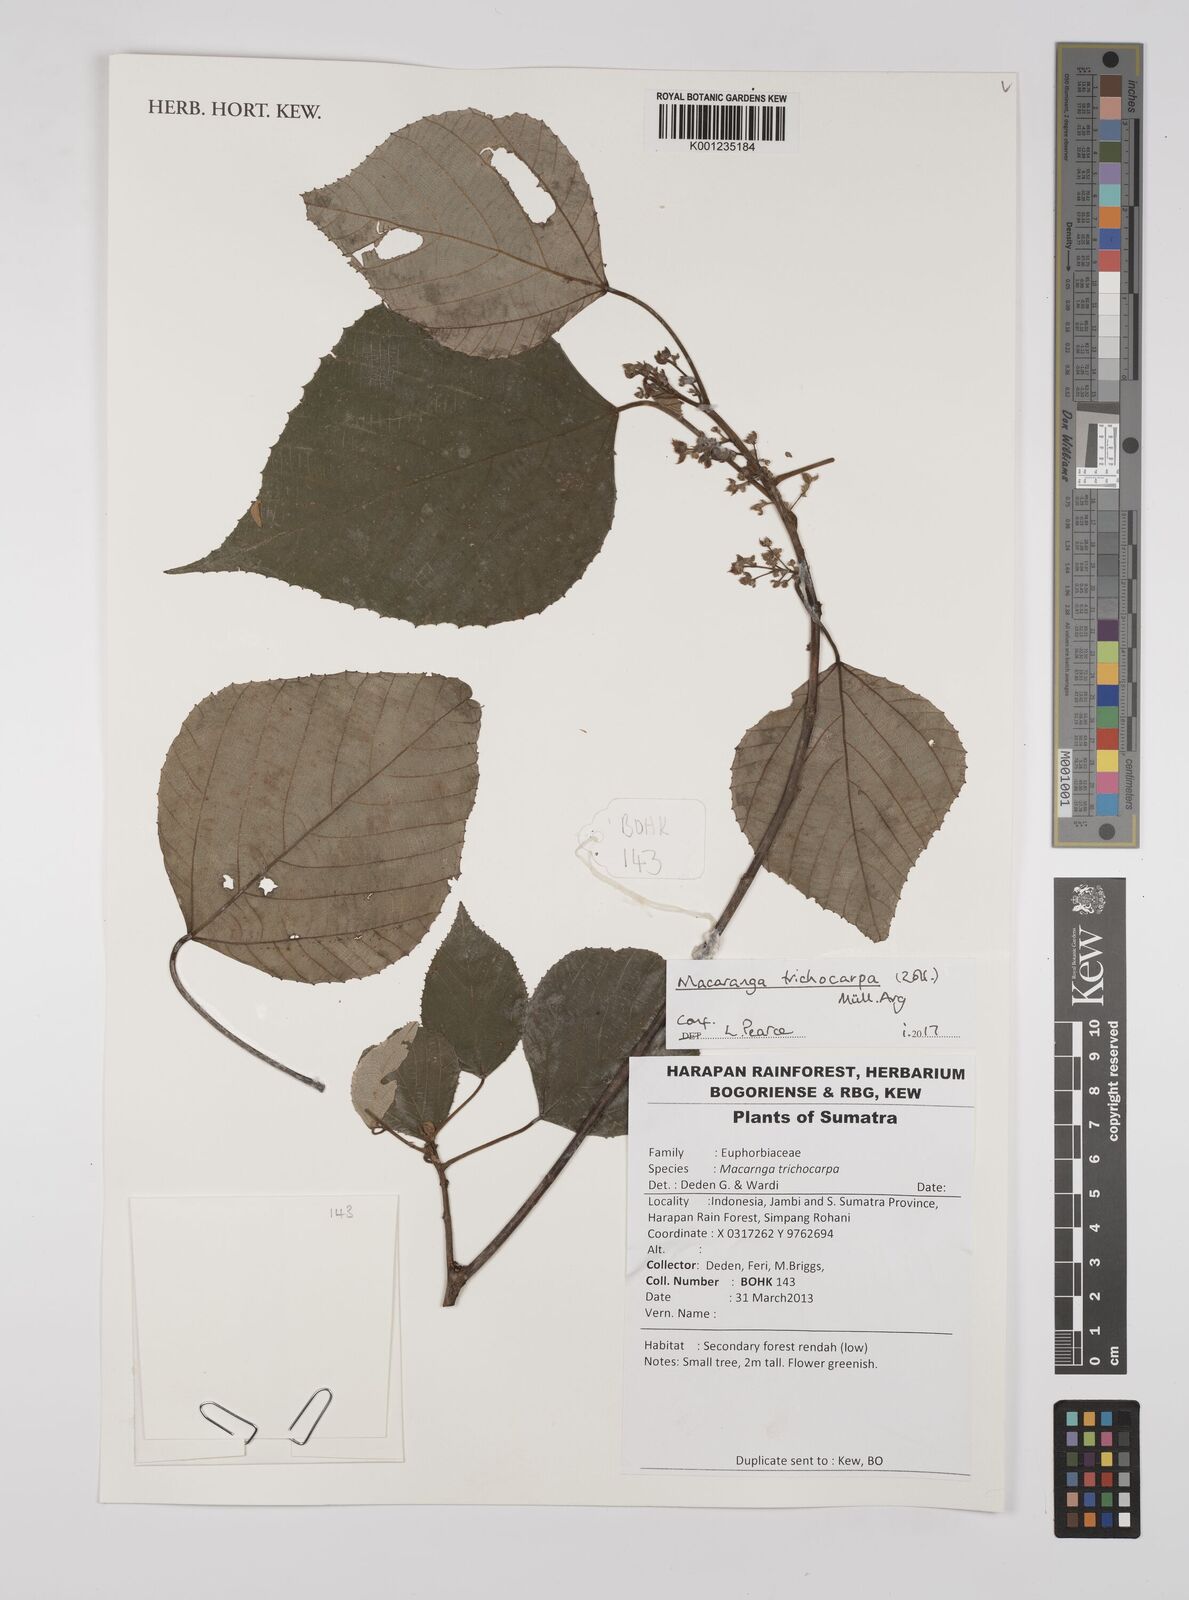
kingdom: Plantae
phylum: Tracheophyta
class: Magnoliopsida
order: Malpighiales
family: Euphorbiaceae
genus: Macaranga
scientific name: Macaranga trichocarpa
